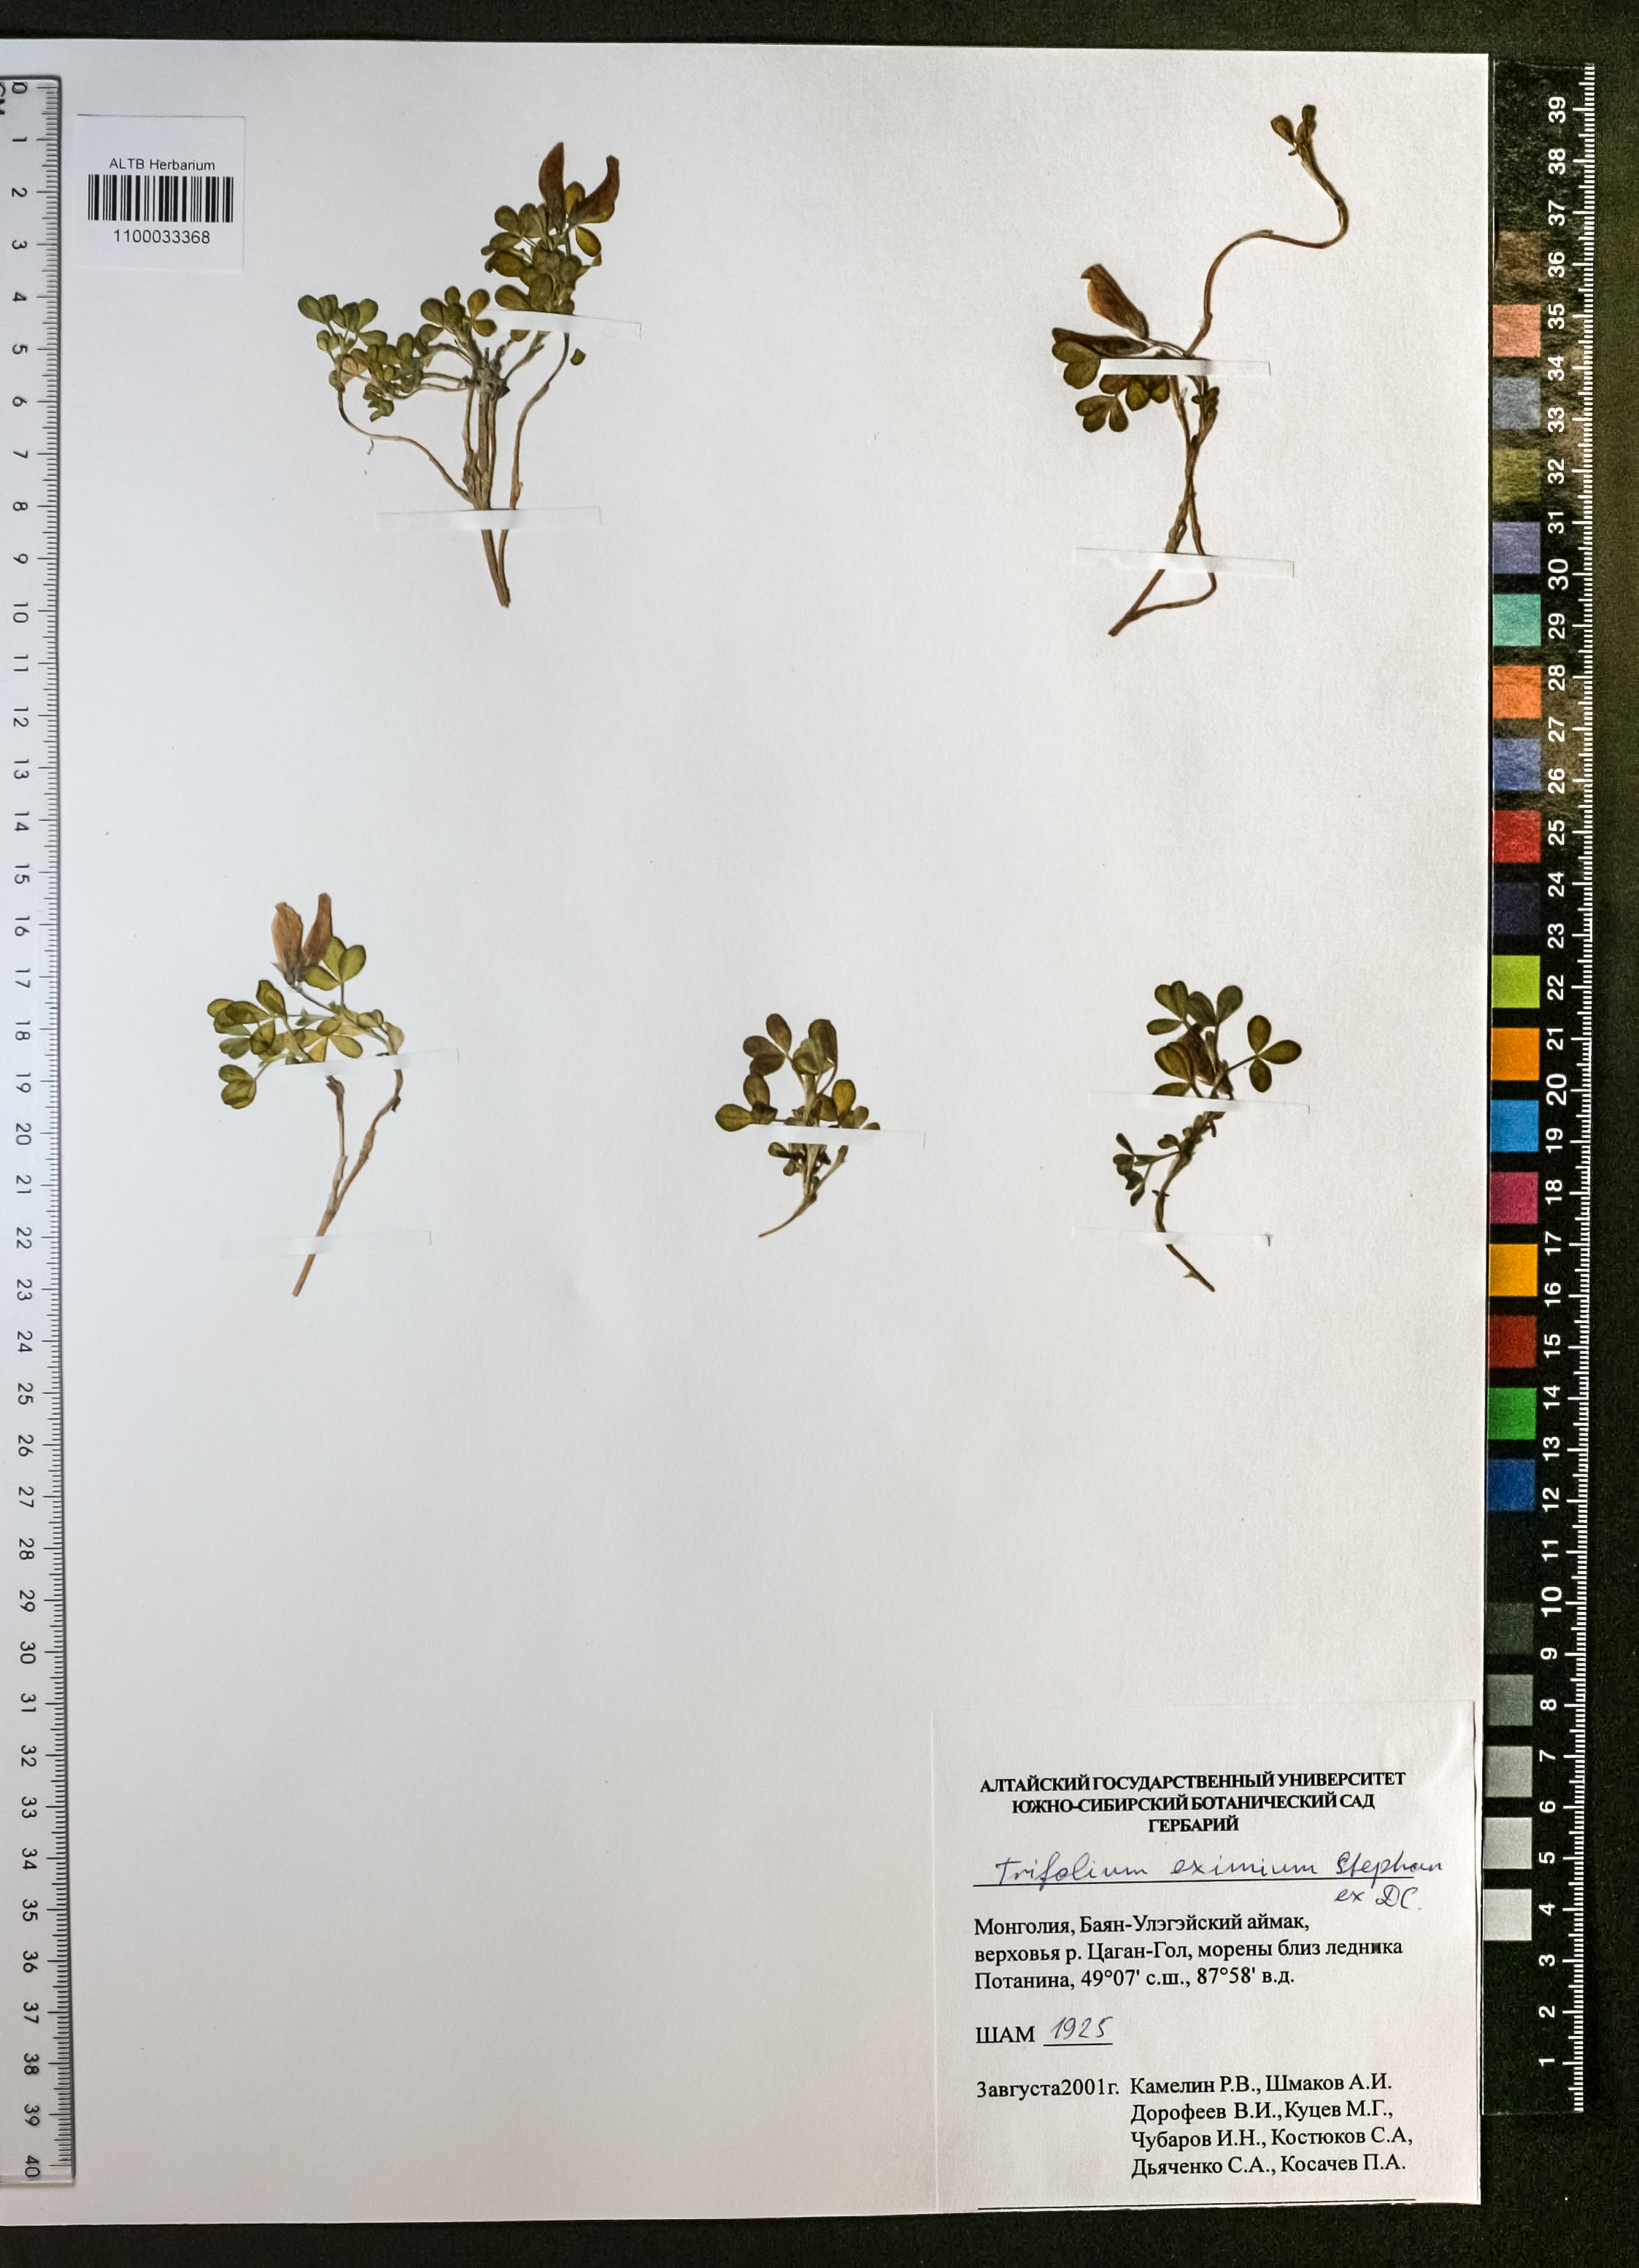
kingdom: Plantae
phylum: Tracheophyta
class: Magnoliopsida
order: Fabales
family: Fabaceae
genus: Trifolium
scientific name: Trifolium eximium
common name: Excellent clover
